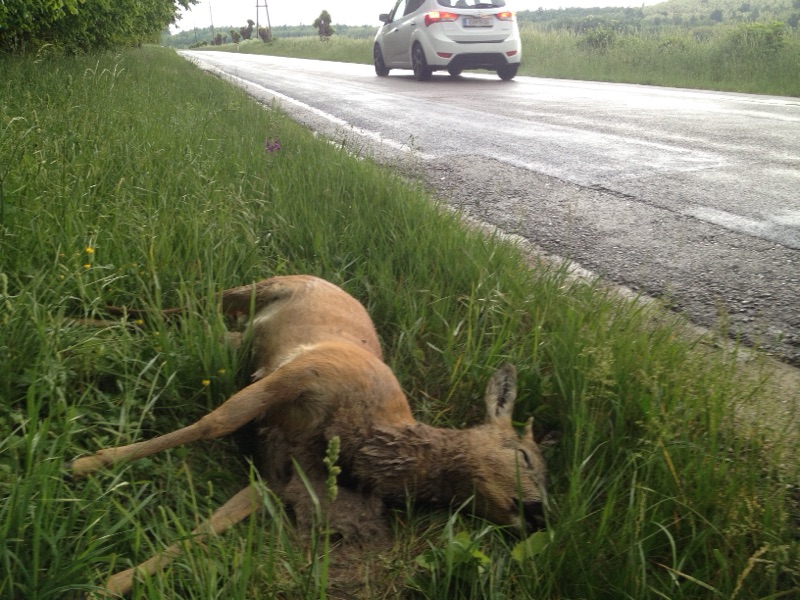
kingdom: Animalia
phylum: Chordata
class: Mammalia
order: Artiodactyla
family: Cervidae
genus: Capreolus
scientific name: Capreolus capreolus
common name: Western roe deer
